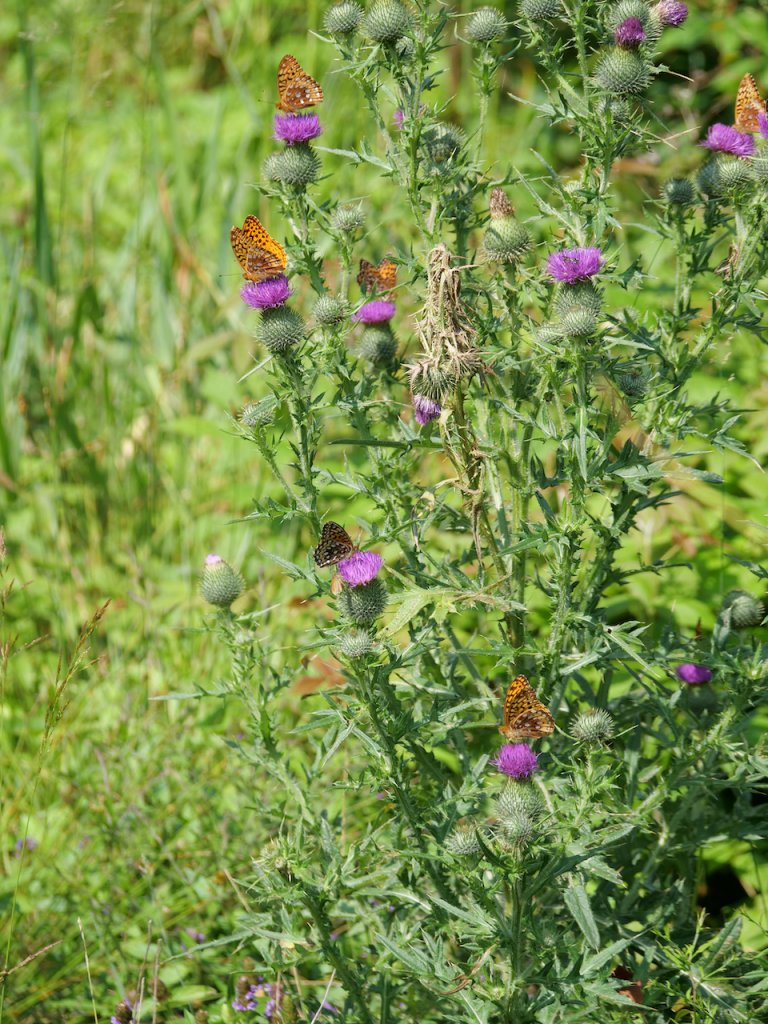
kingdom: Animalia
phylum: Arthropoda
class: Insecta
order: Lepidoptera
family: Nymphalidae
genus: Speyeria
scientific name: Speyeria cybele
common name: Great Spangled Fritillary
